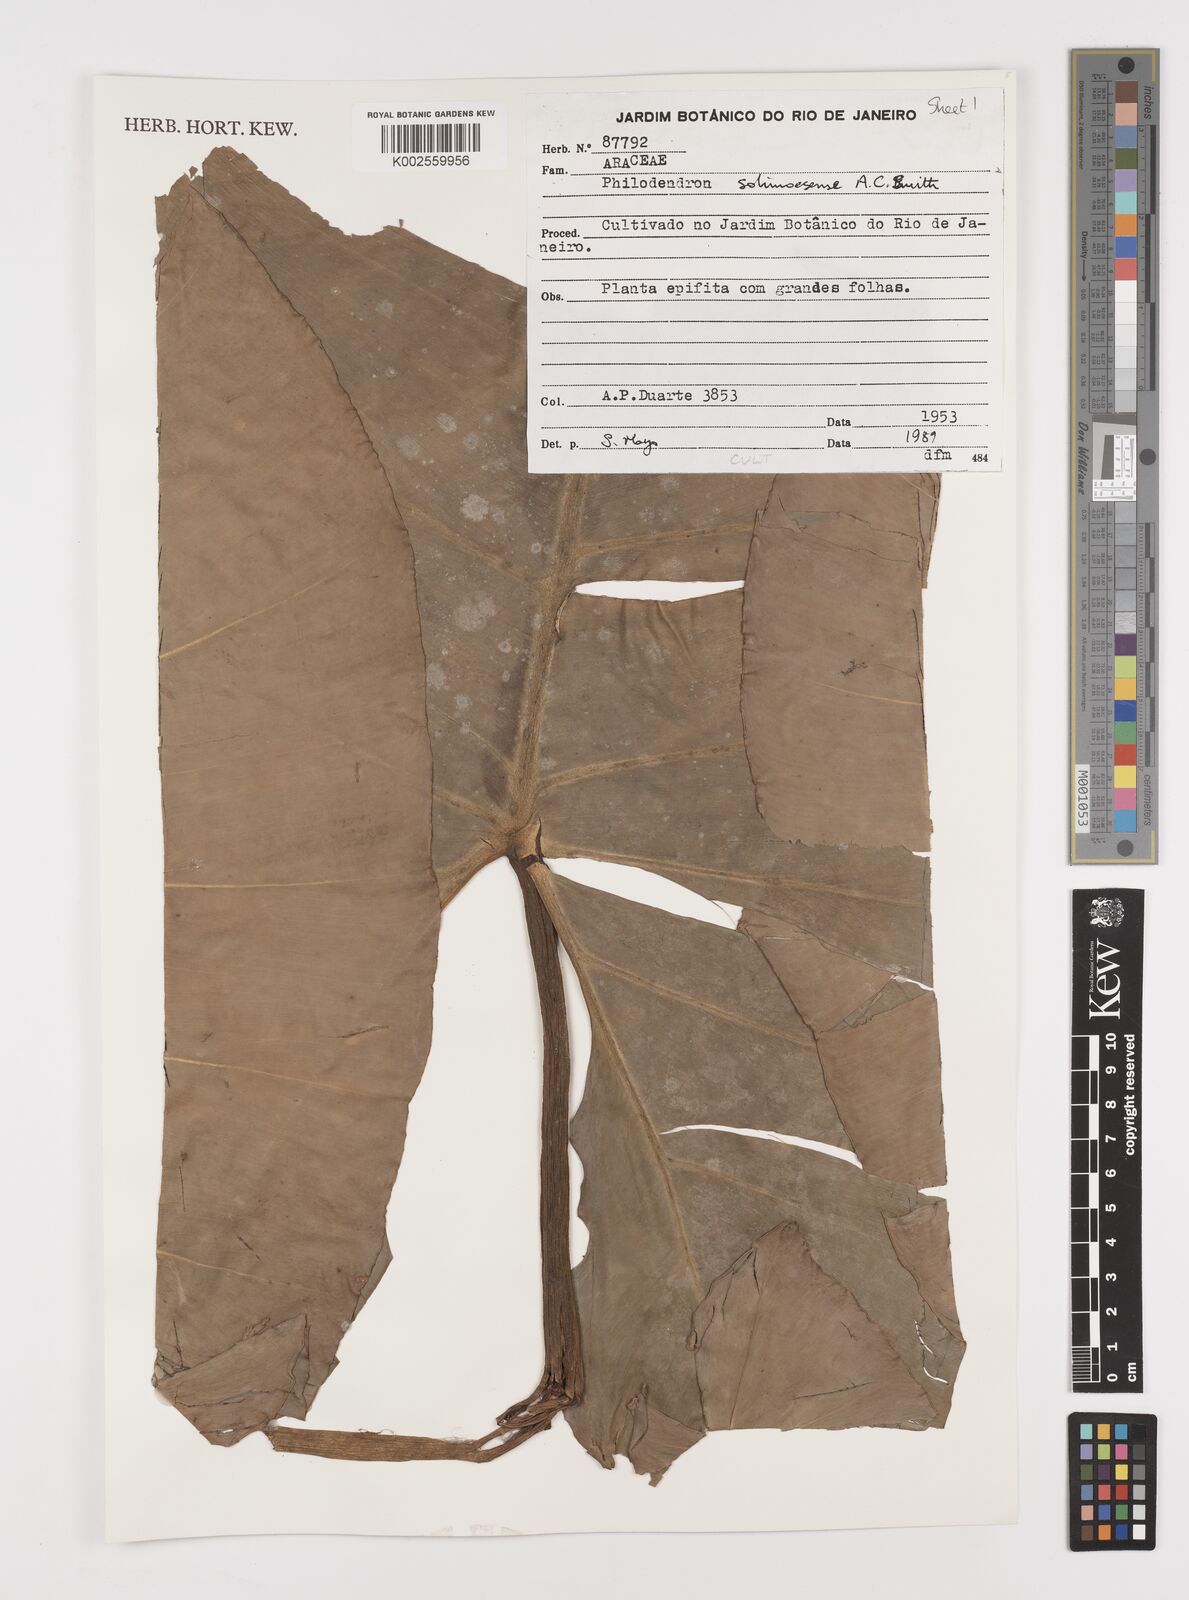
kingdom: Plantae
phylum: Tracheophyta
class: Liliopsida
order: Alismatales
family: Araceae
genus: Thaumatophyllum
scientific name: Thaumatophyllum solimoesense
